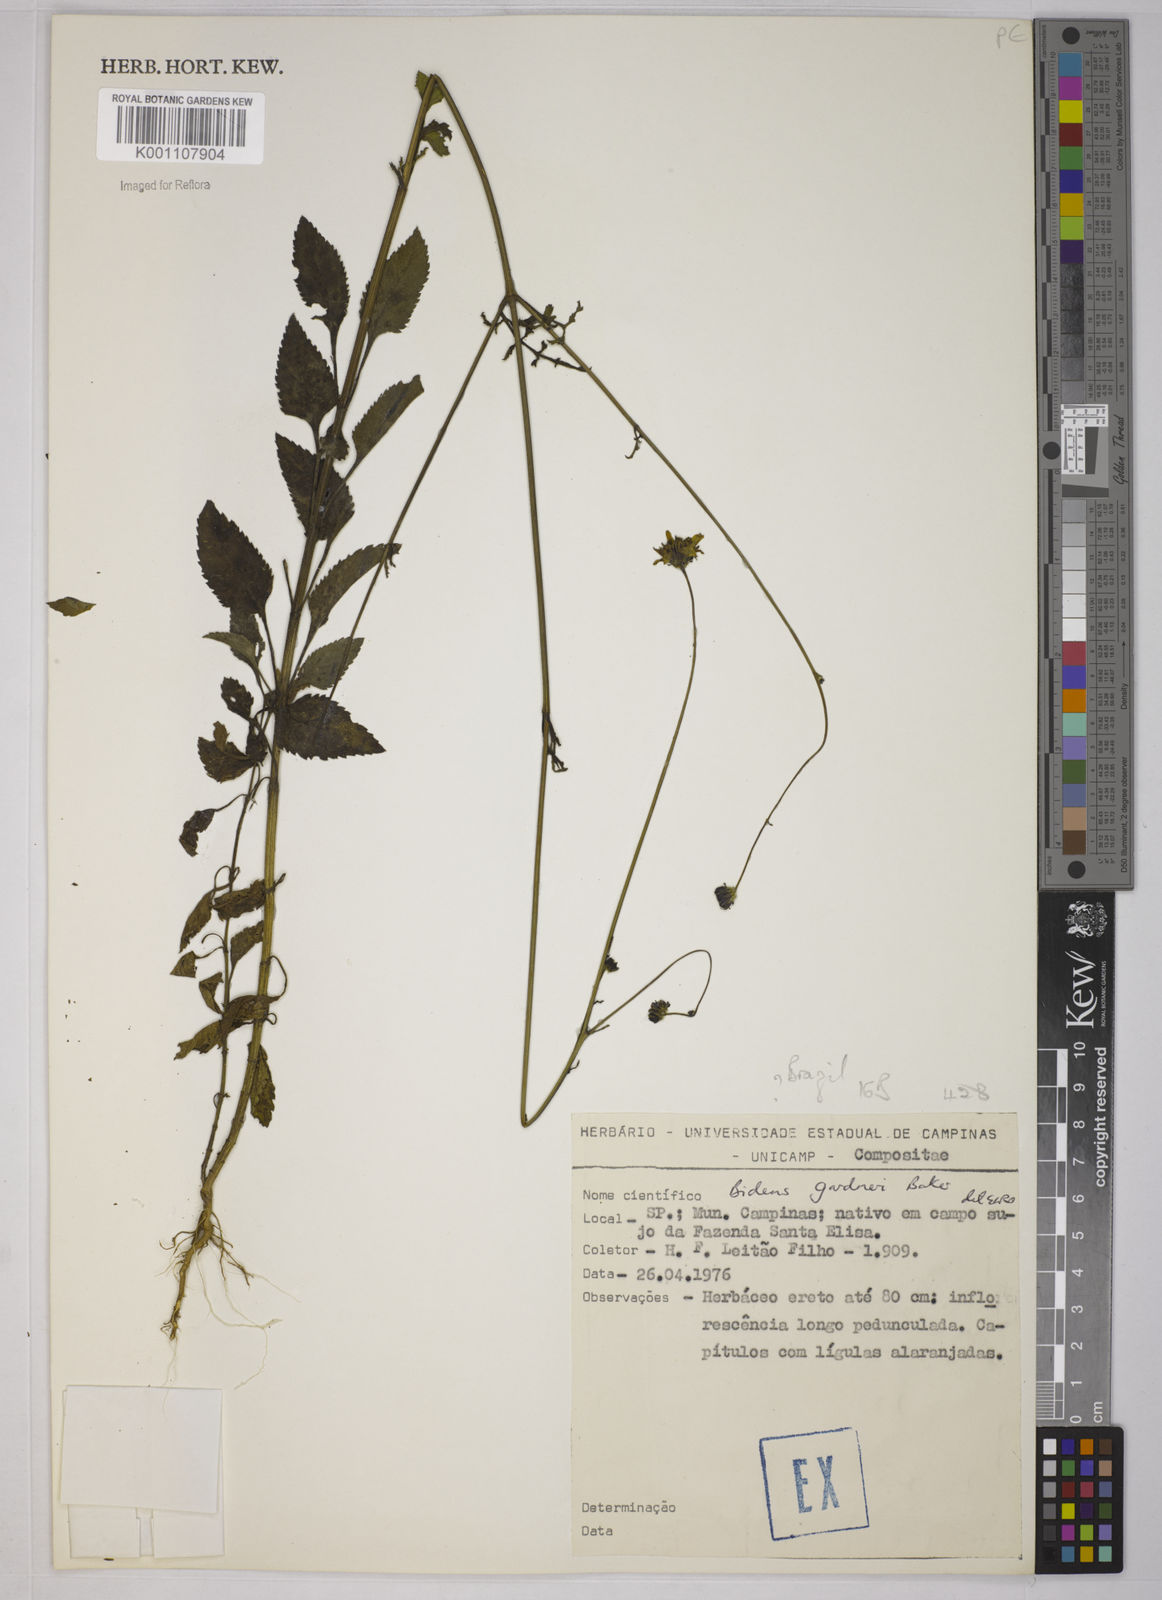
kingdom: Plantae
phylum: Tracheophyta
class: Magnoliopsida
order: Asterales
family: Asteraceae
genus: Bidens
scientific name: Bidens gardneri
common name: Ridge beggartick
